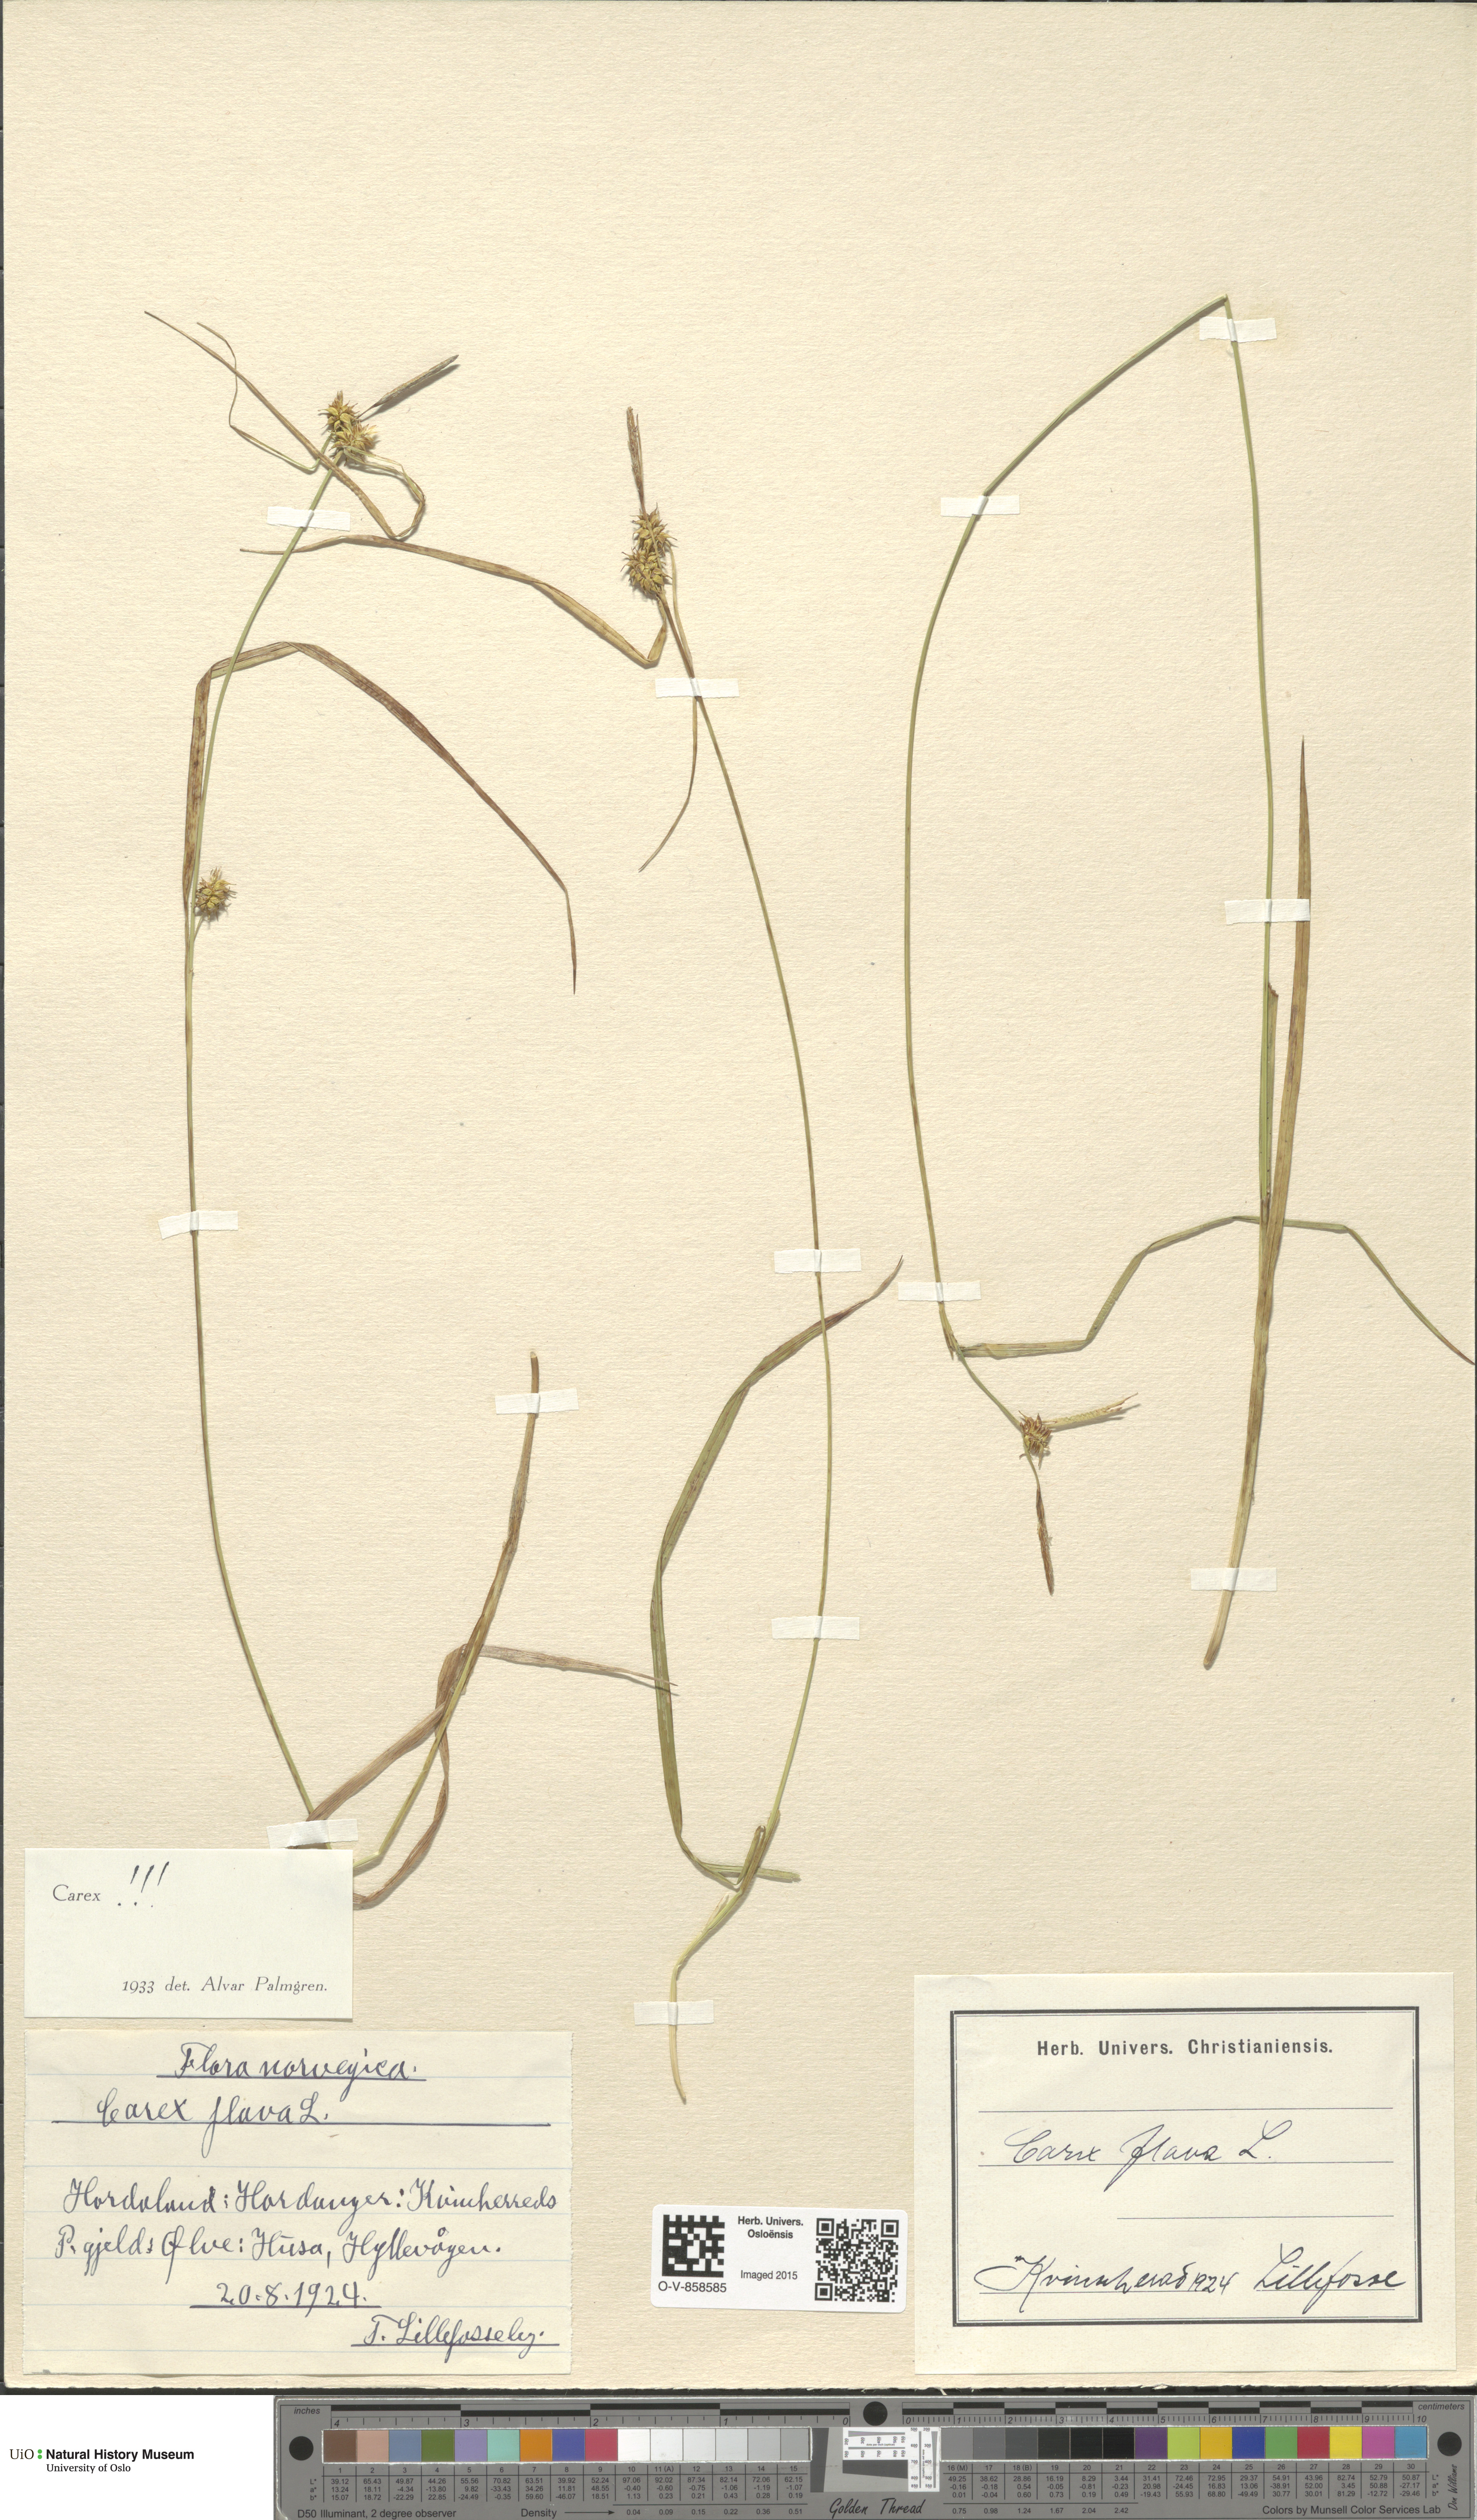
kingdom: Plantae
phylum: Tracheophyta
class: Liliopsida
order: Poales
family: Cyperaceae
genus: Carex
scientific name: Carex flava
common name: Large yellow-sedge
